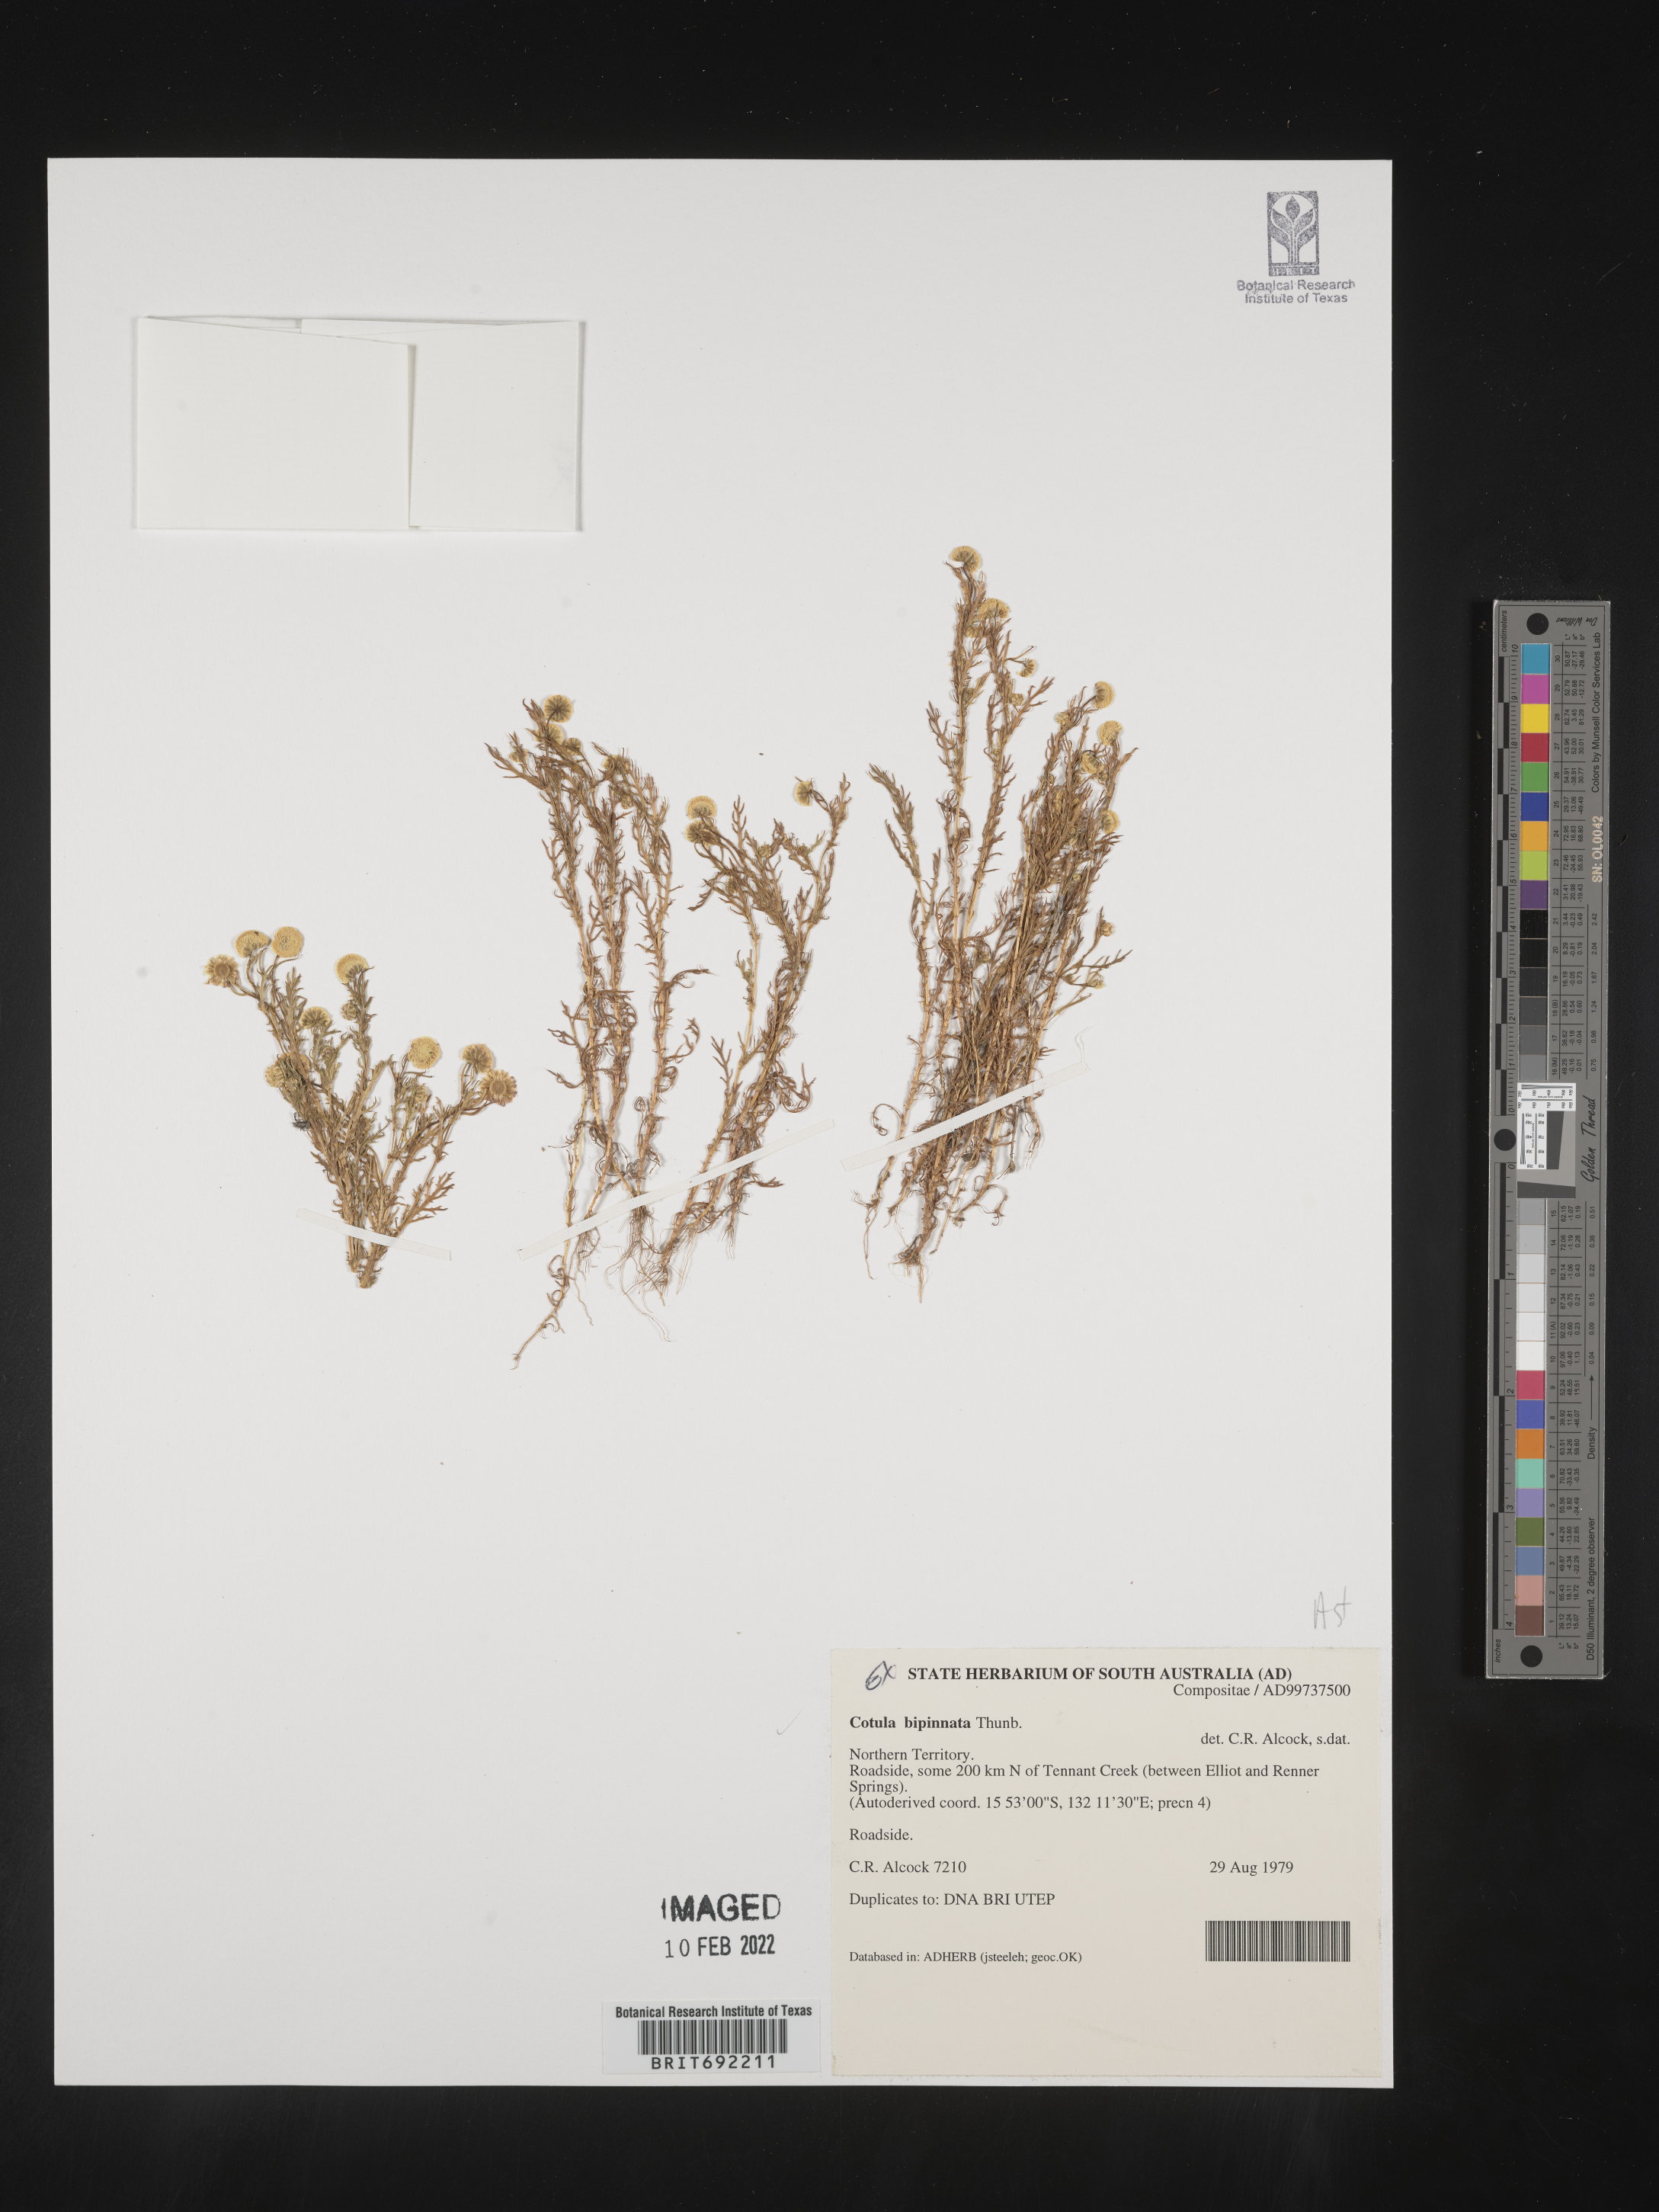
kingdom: Plantae
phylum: Tracheophyta
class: Magnoliopsida
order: Asterales
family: Asteraceae
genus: Cotula
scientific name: Cotula
